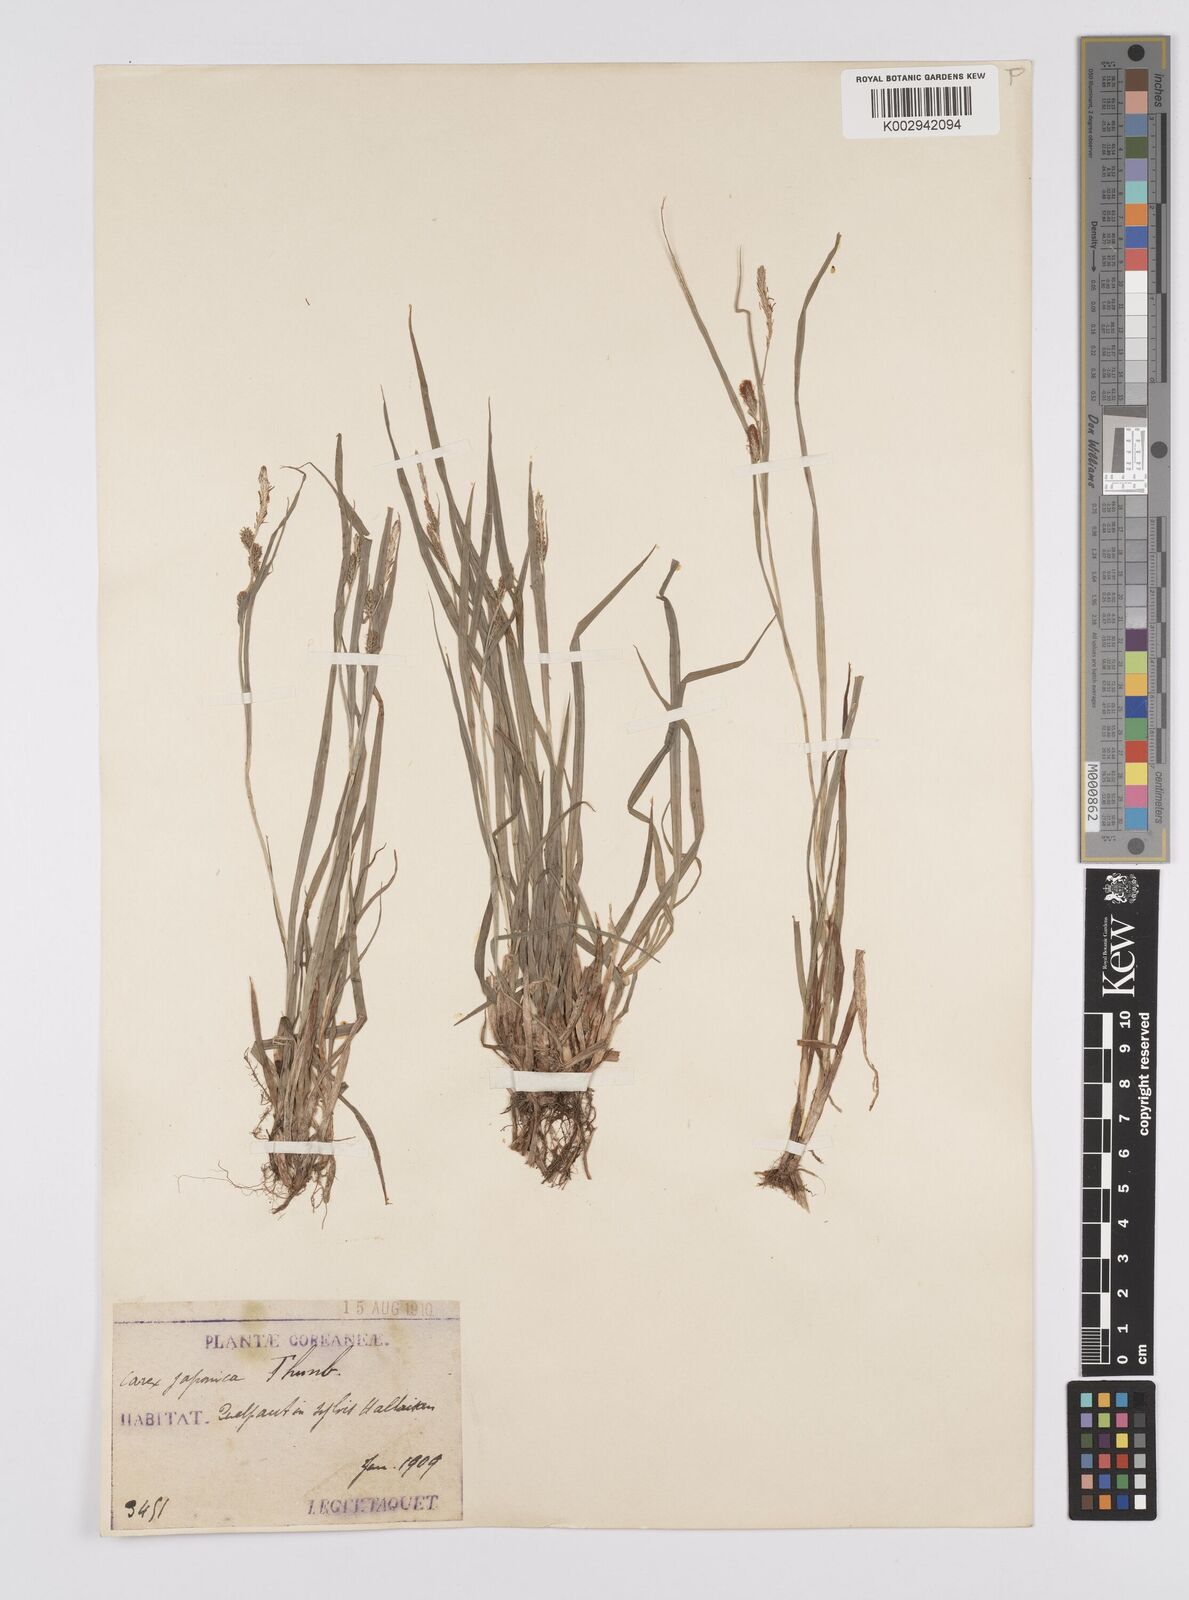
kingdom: Plantae
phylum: Tracheophyta
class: Liliopsida
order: Poales
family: Cyperaceae
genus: Carex
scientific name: Carex japonica
